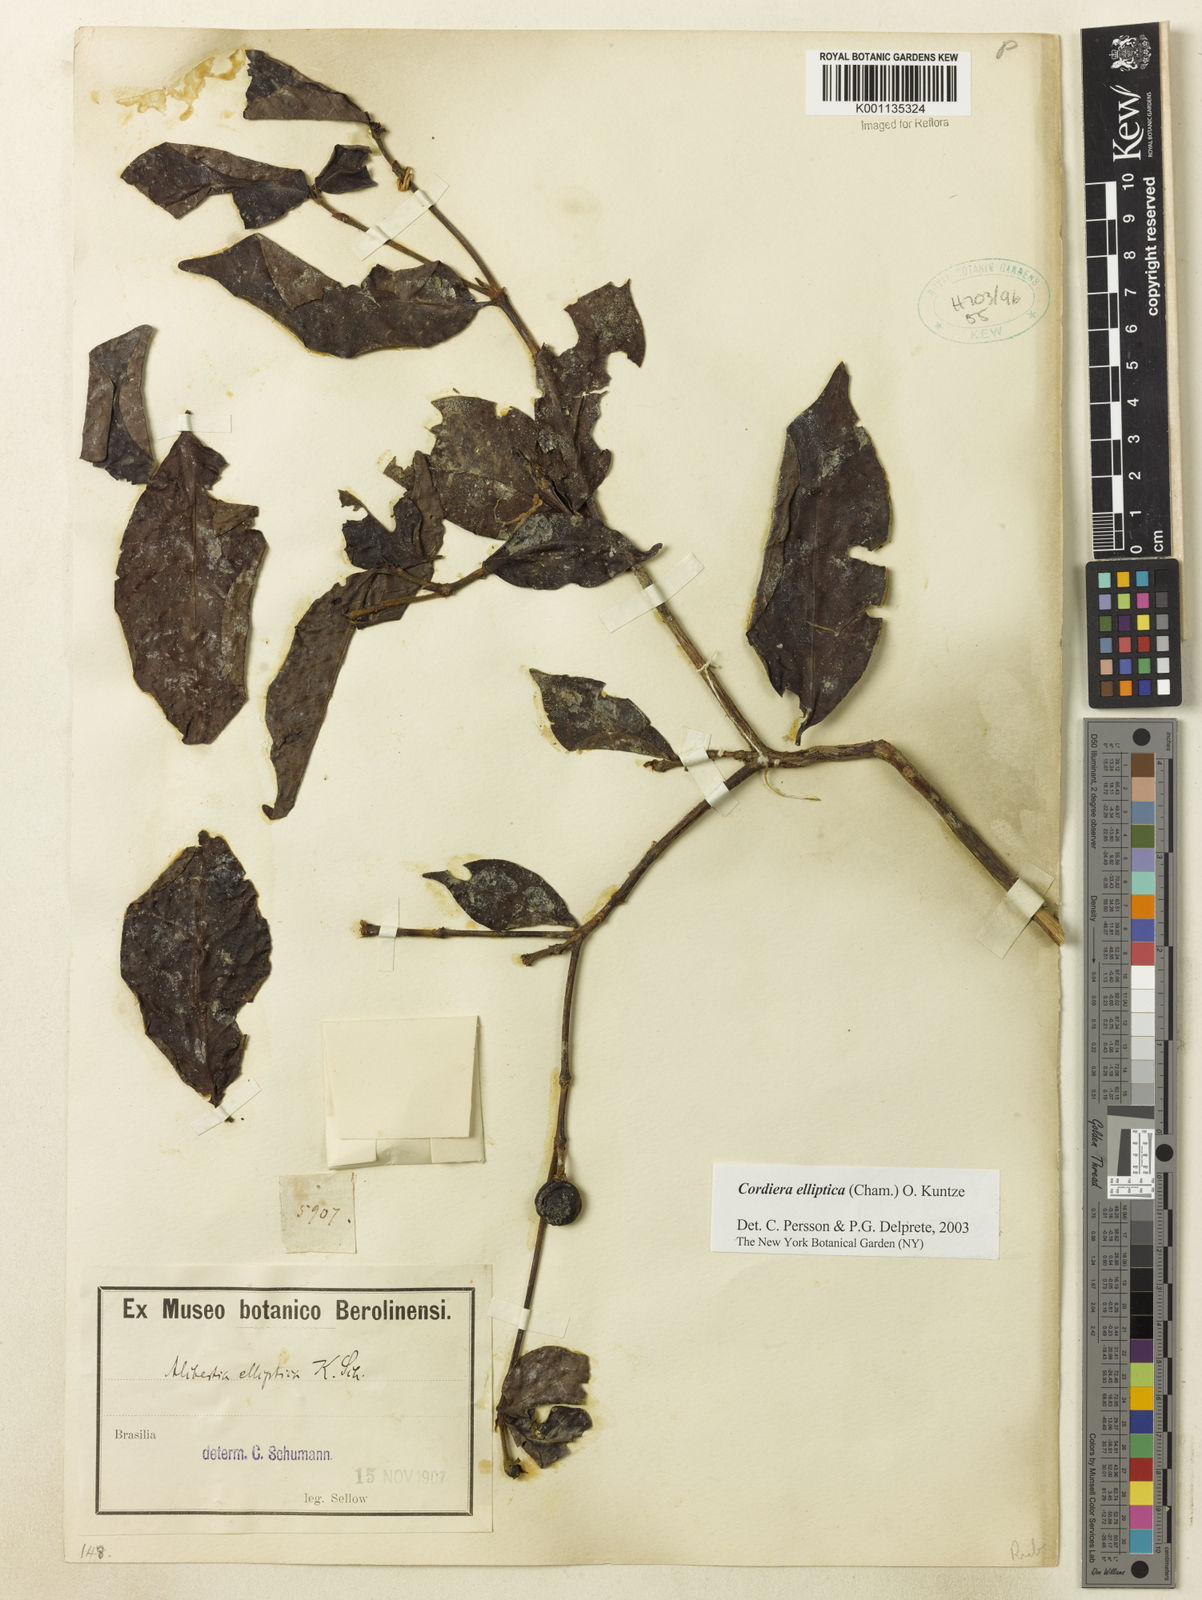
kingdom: Plantae
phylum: Tracheophyta
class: Magnoliopsida
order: Gentianales
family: Rubiaceae
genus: Cordiera
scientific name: Cordiera elliptica
